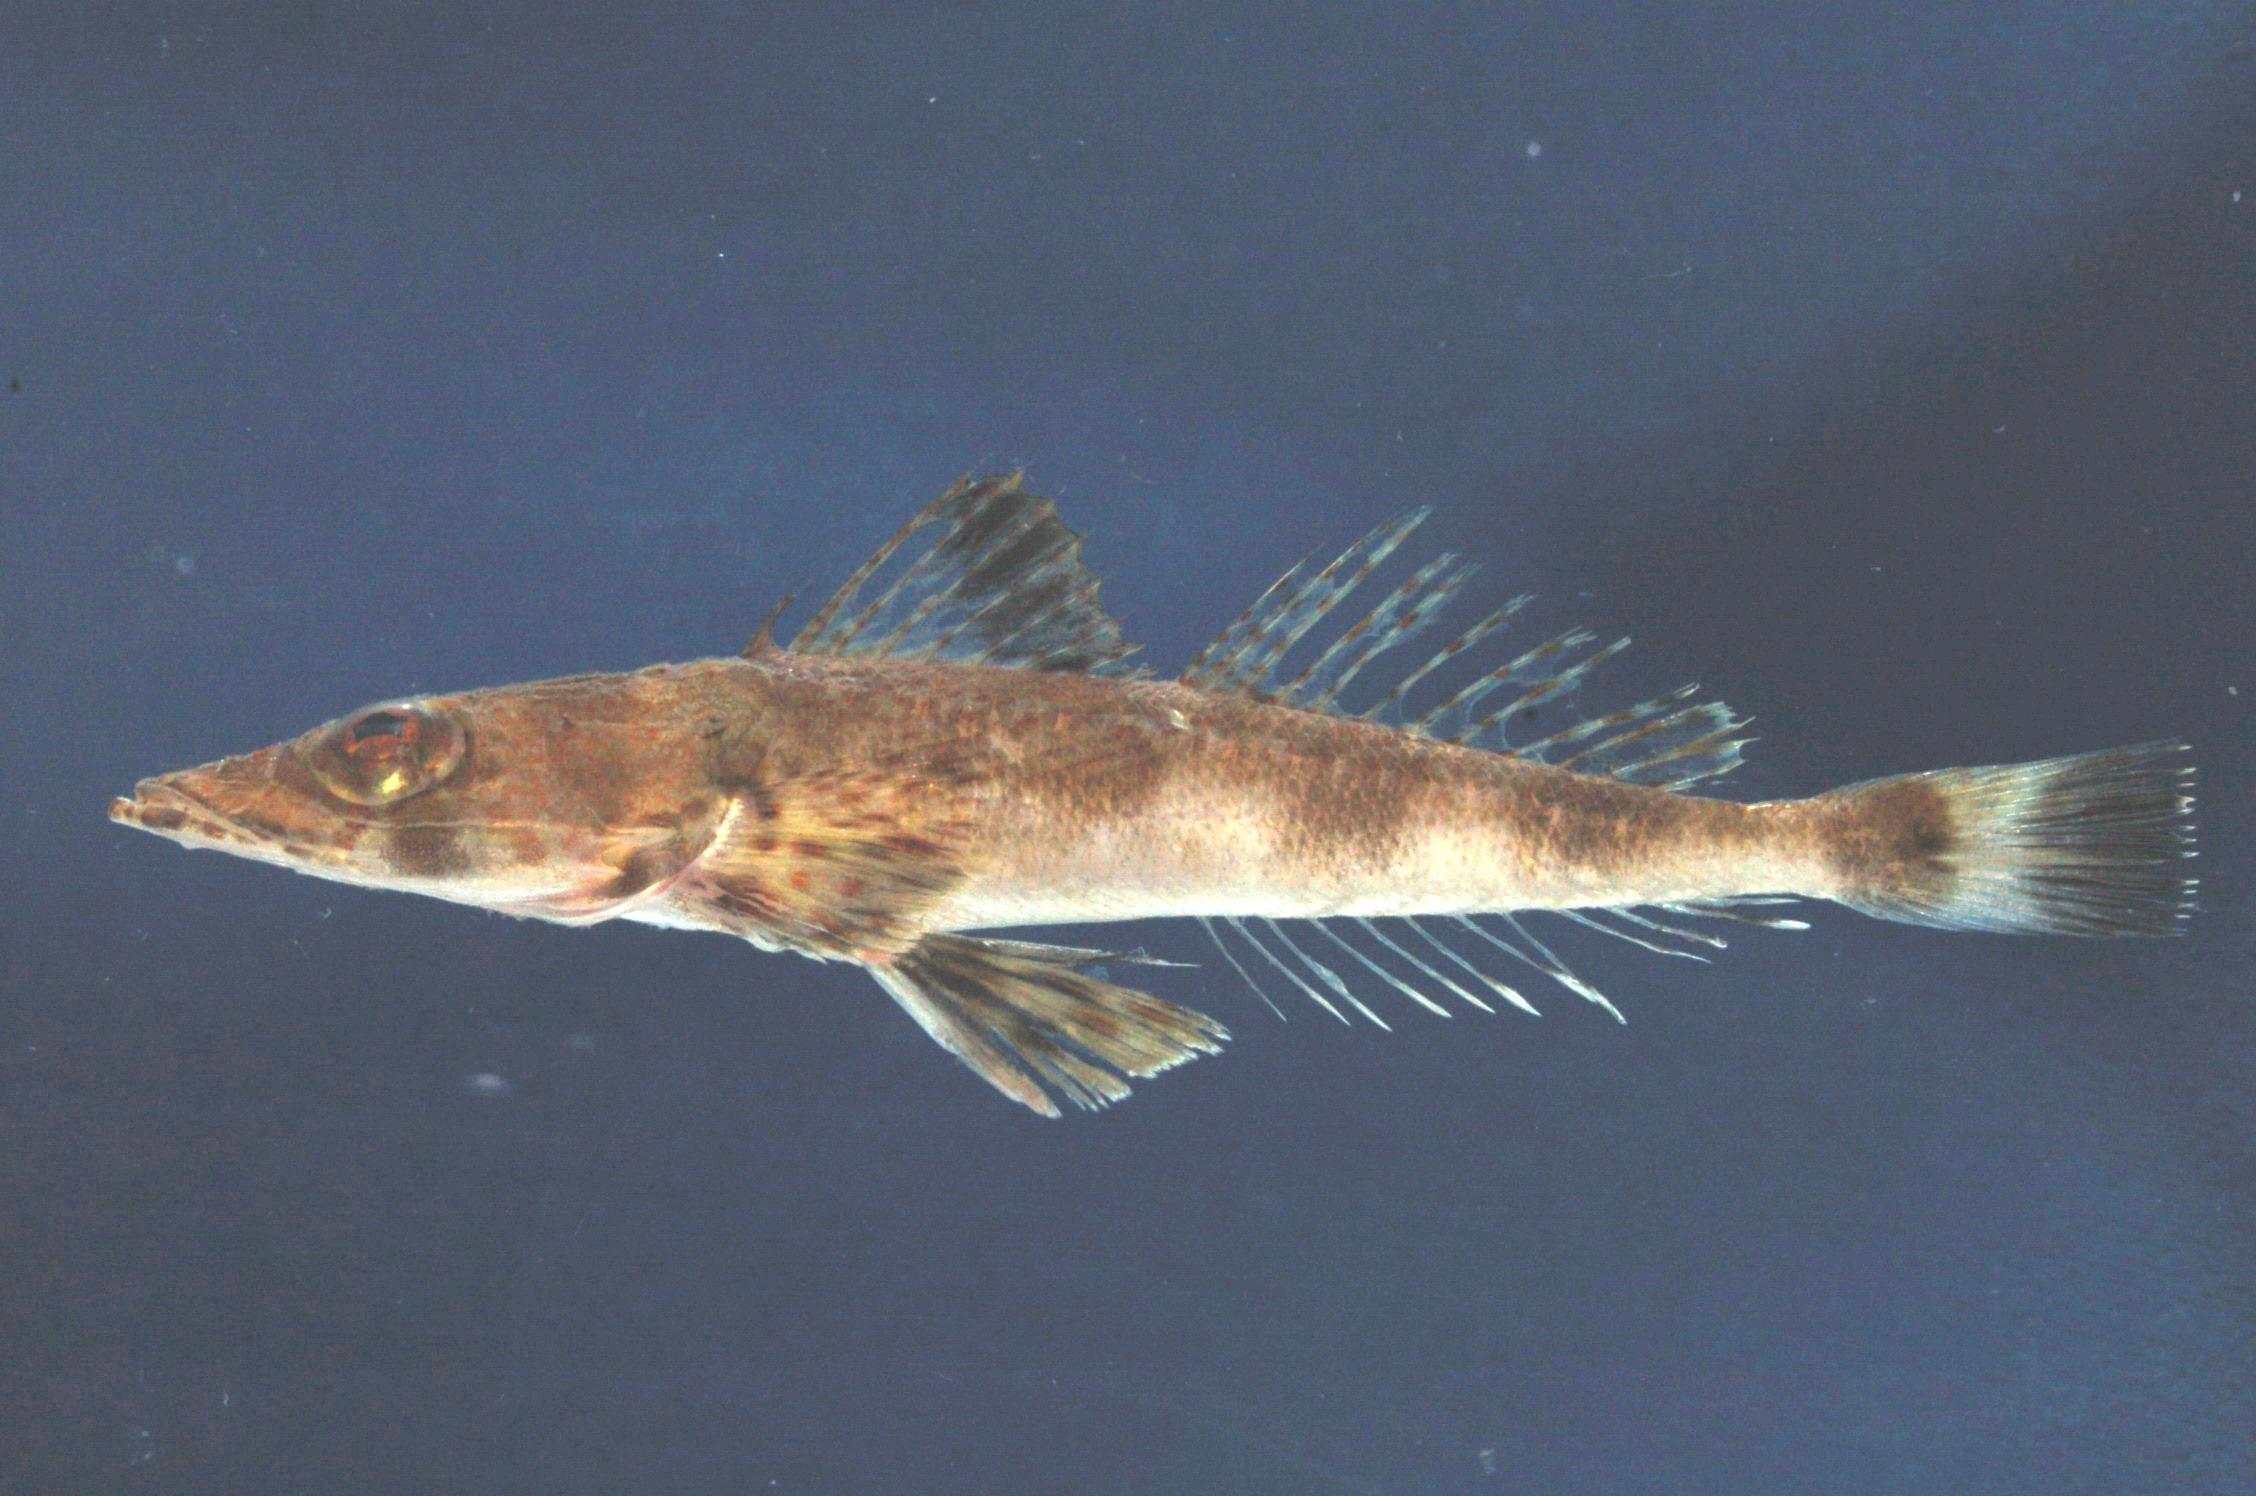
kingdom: Animalia
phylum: Chordata
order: Scorpaeniformes
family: Platycephalidae
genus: Sorsogona
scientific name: Sorsogona humerosa
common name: White-margined flathead
